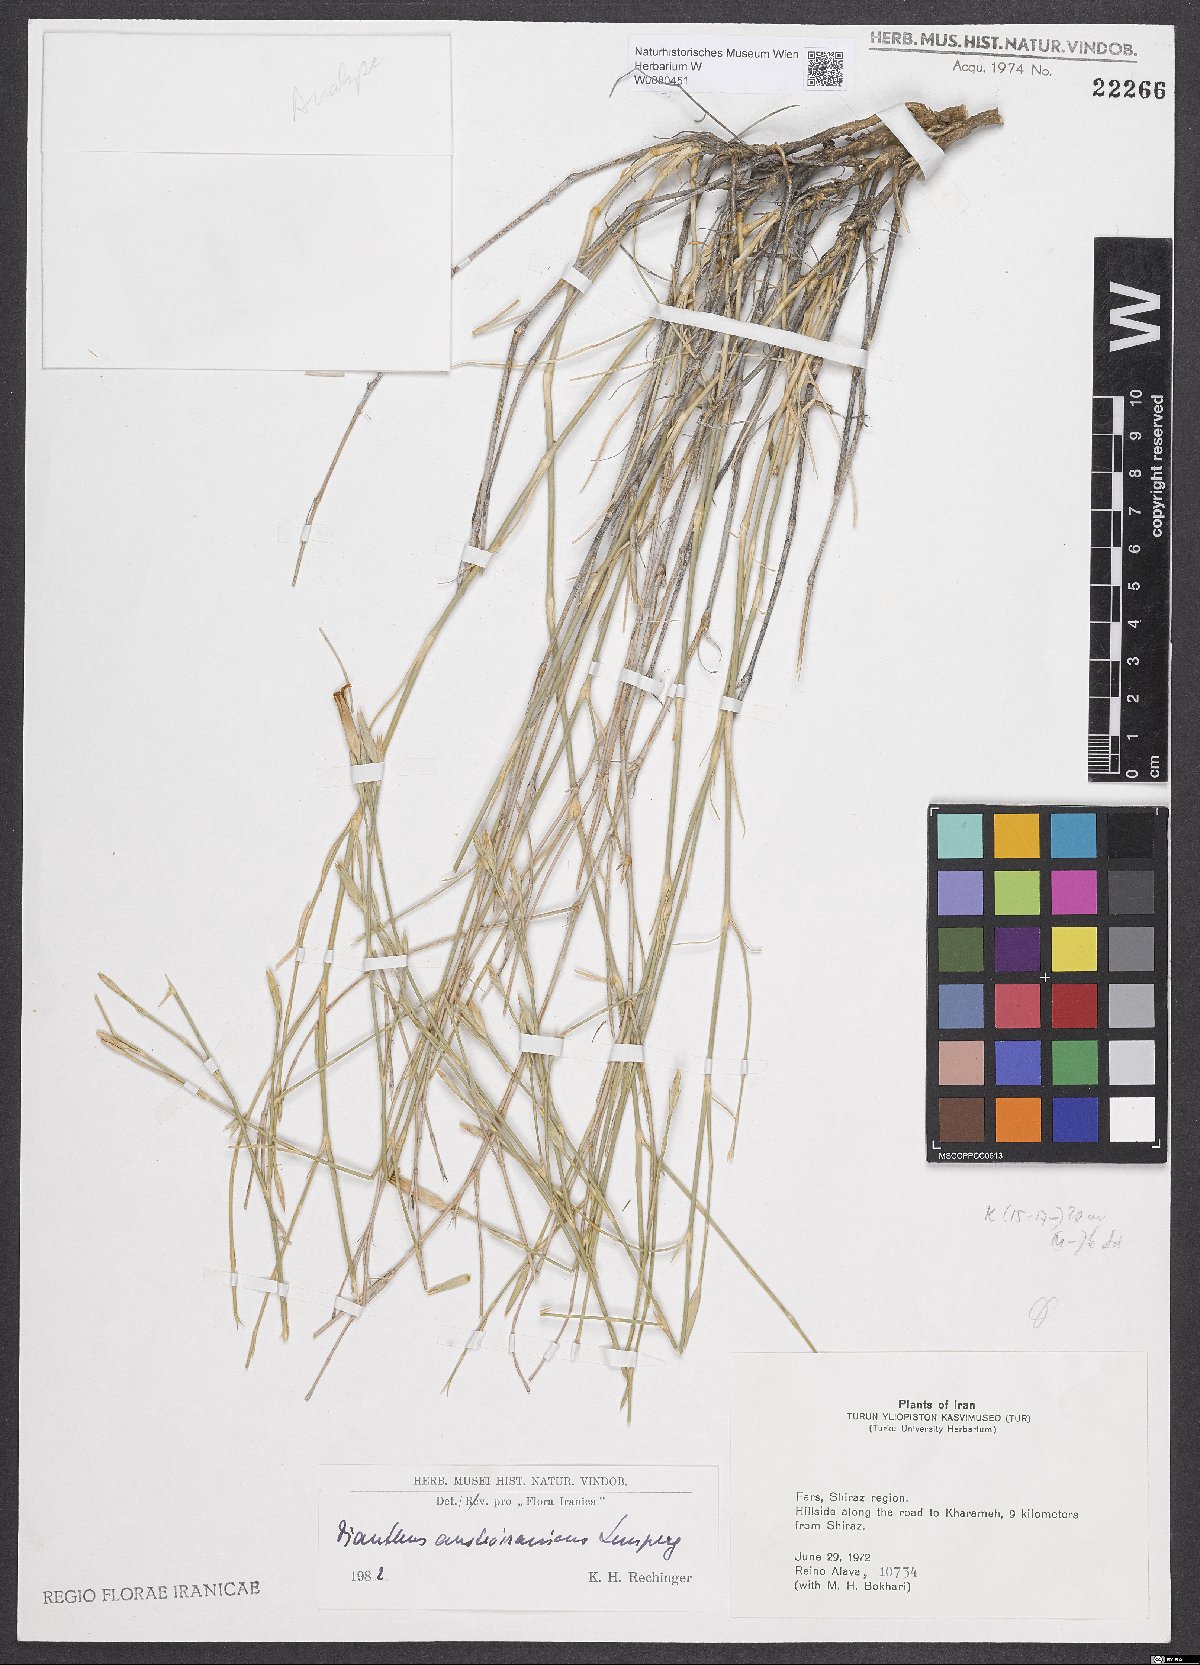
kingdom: Plantae
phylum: Tracheophyta
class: Magnoliopsida
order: Caryophyllales
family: Caryophyllaceae
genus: Dianthus
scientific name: Dianthus austroiranicus
